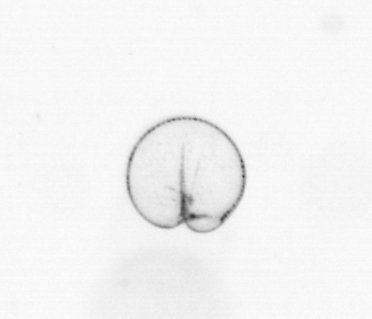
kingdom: Chromista
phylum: Myzozoa
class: Dinophyceae
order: Noctilucales
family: Noctilucaceae
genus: Noctiluca
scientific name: Noctiluca scintillans
